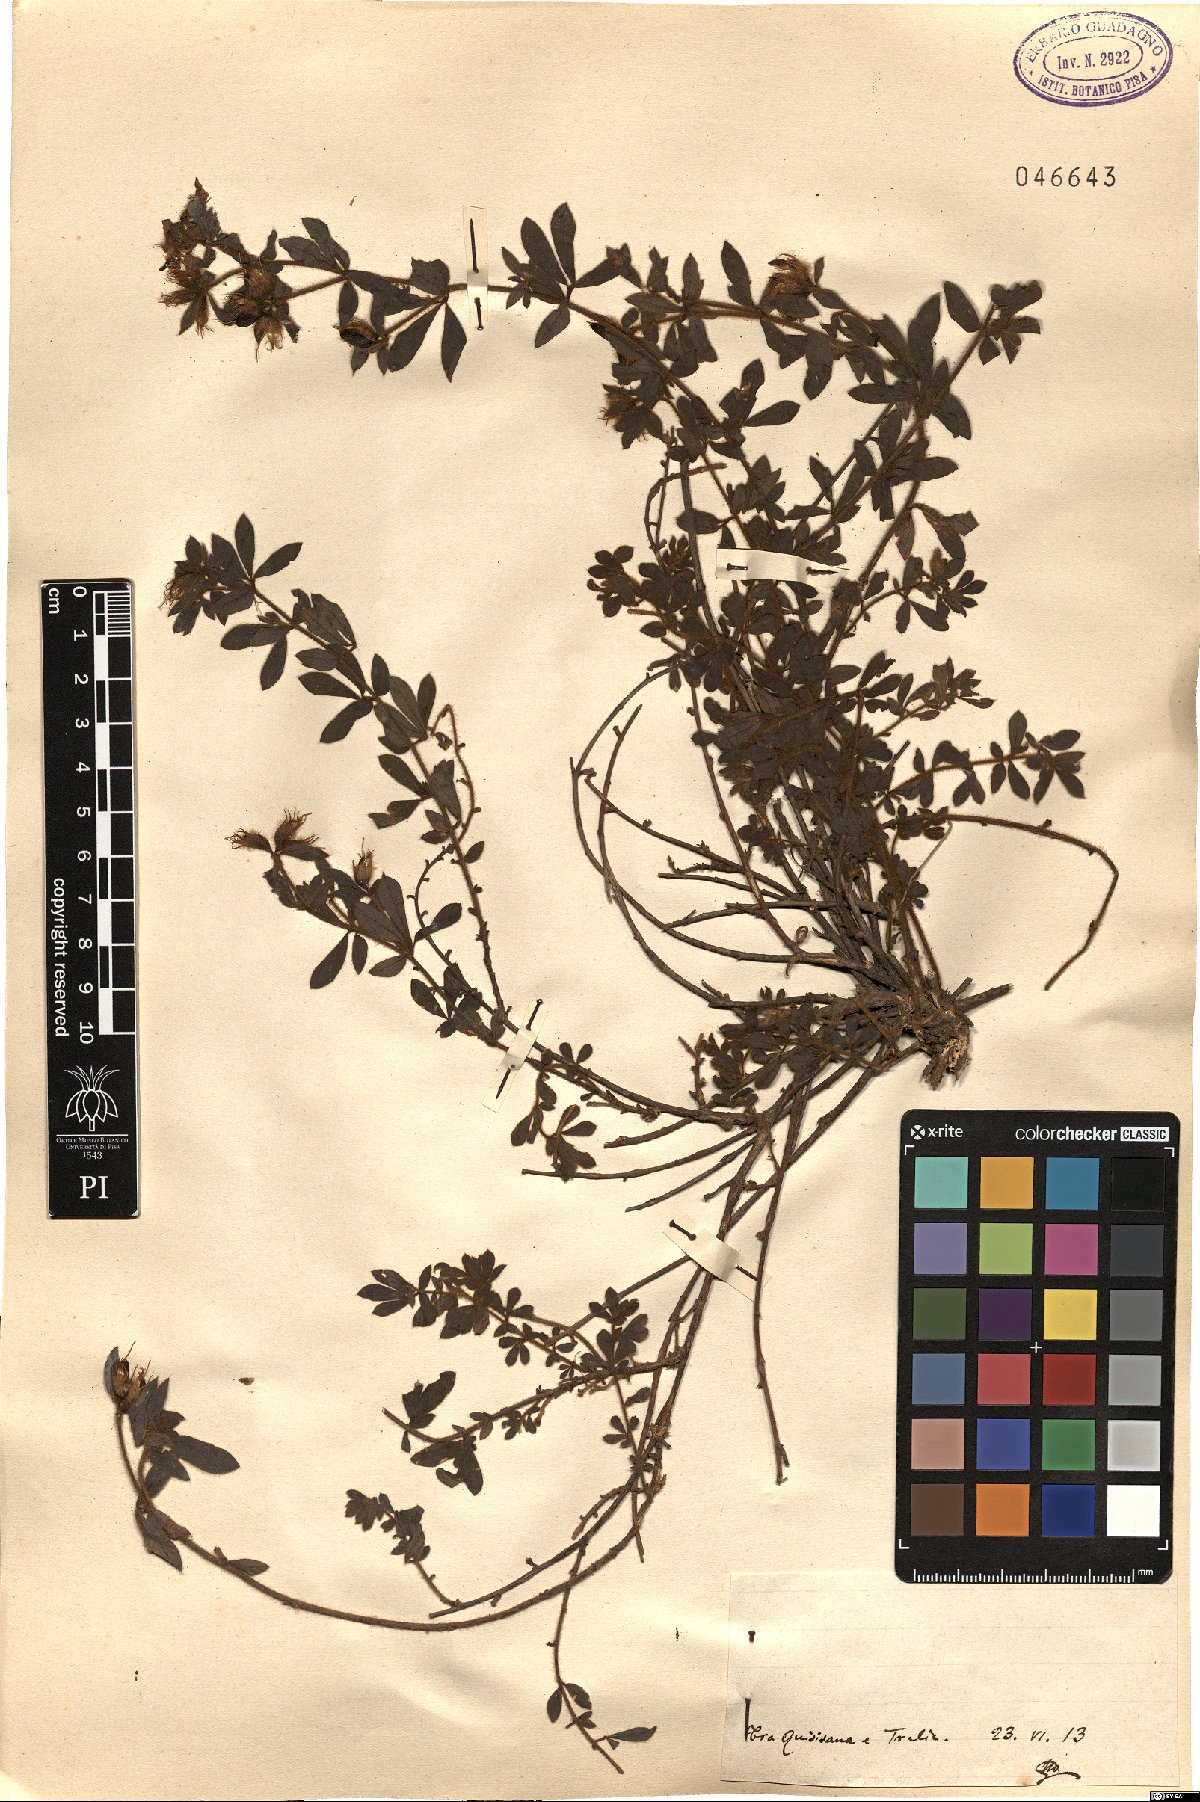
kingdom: Plantae
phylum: Tracheophyta
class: Magnoliopsida
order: Fabales
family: Fabaceae
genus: Lotus
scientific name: Lotus
